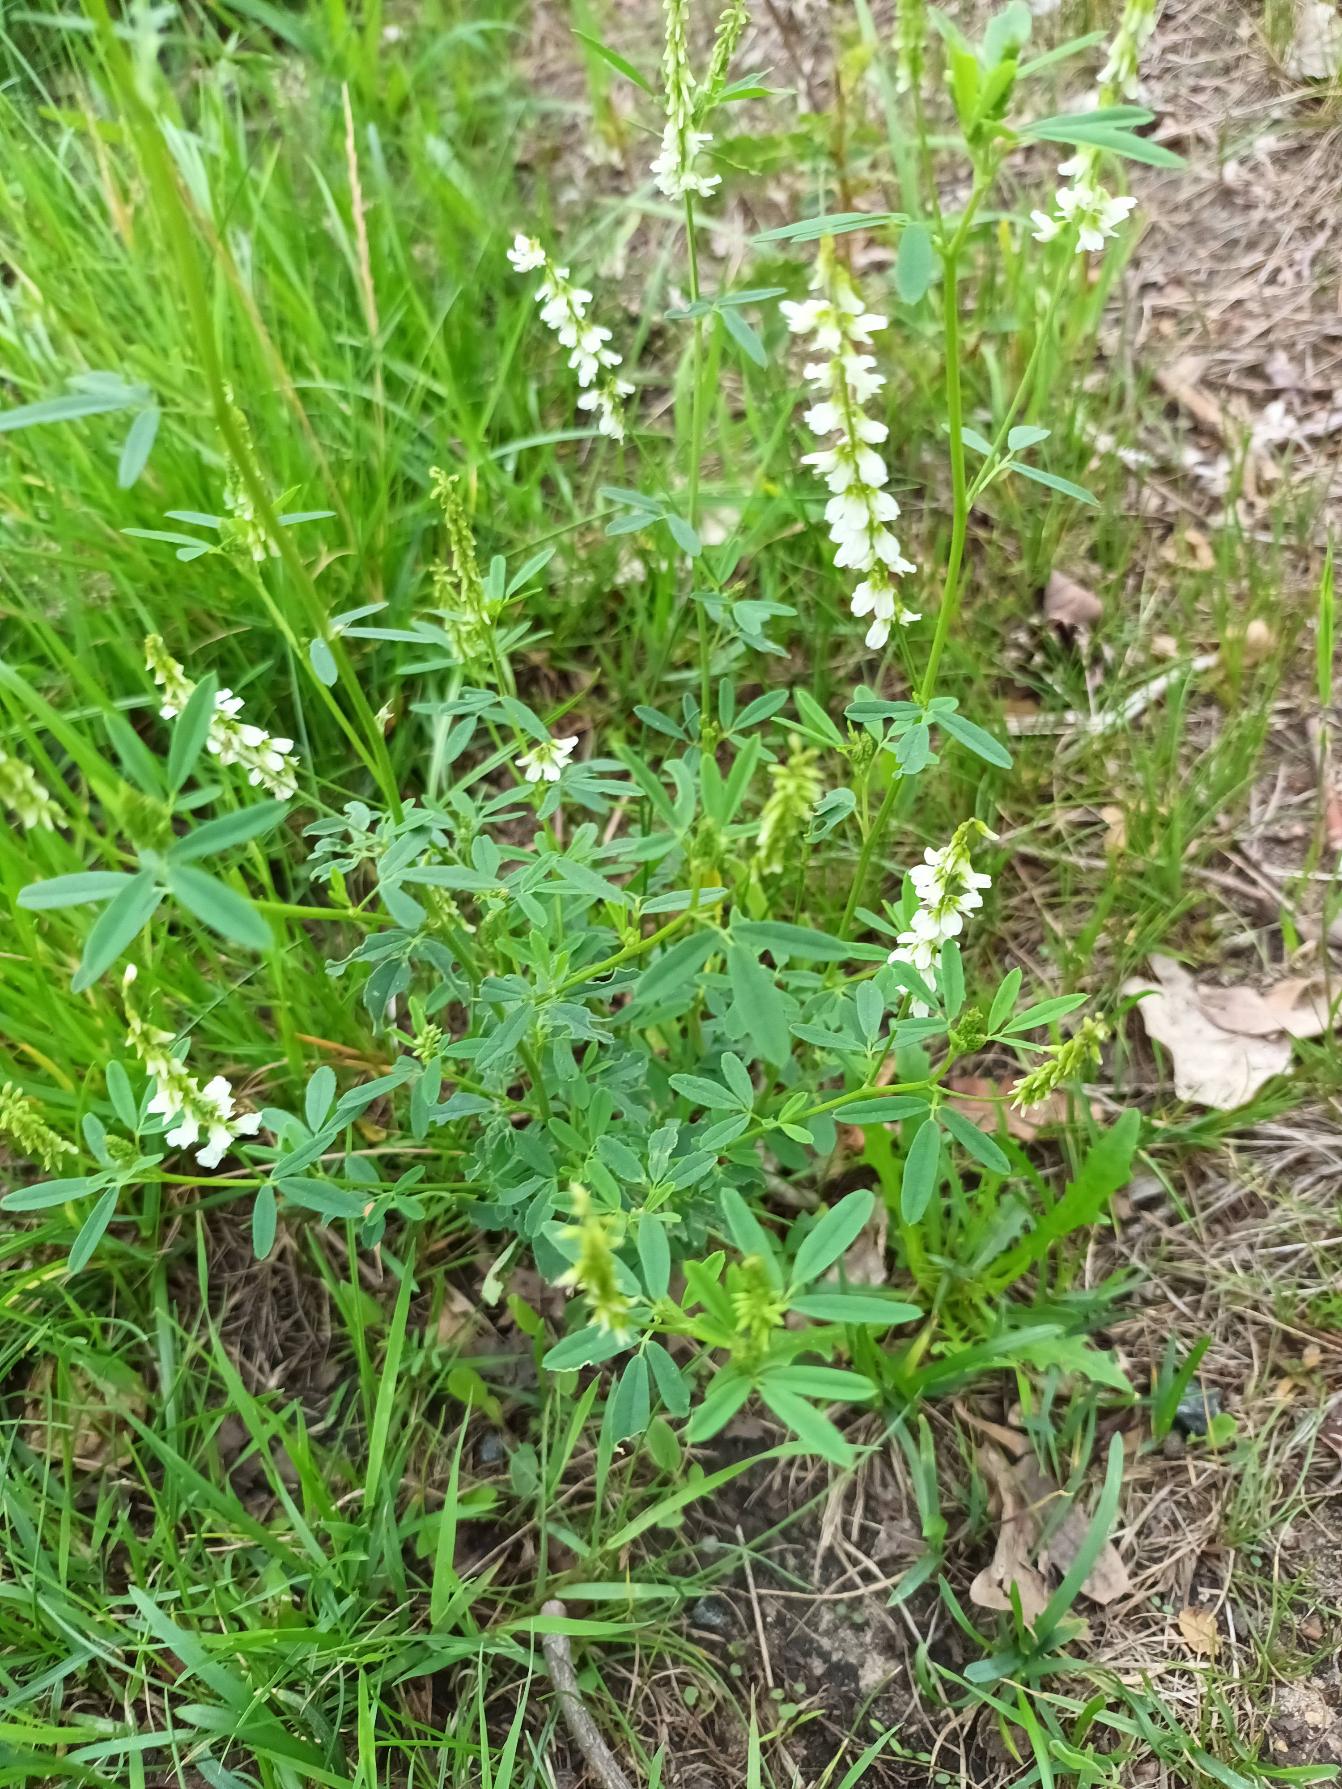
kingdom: Plantae
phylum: Tracheophyta
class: Magnoliopsida
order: Fabales
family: Fabaceae
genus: Melilotus
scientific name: Melilotus albus
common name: Hvid stenkløver
